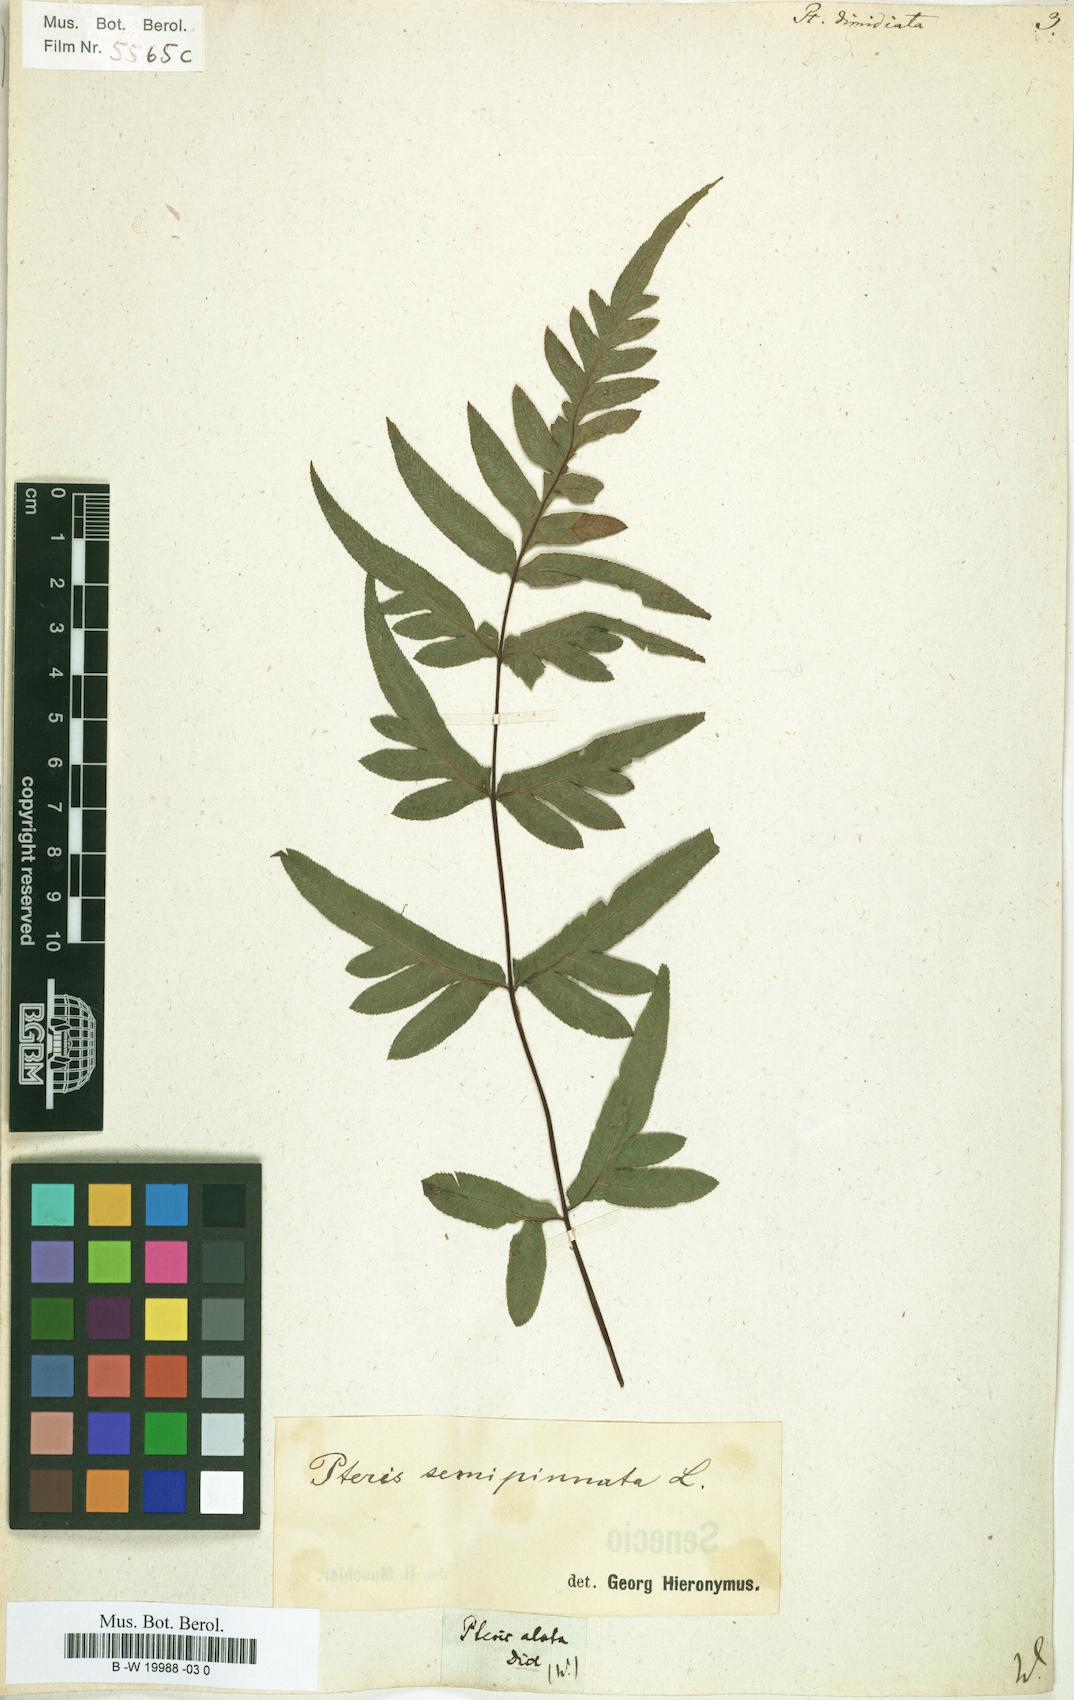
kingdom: Plantae
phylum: Tracheophyta
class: Polypodiopsida
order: Polypodiales
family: Pteridaceae
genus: Pteris
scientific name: Pteris semipinnata
